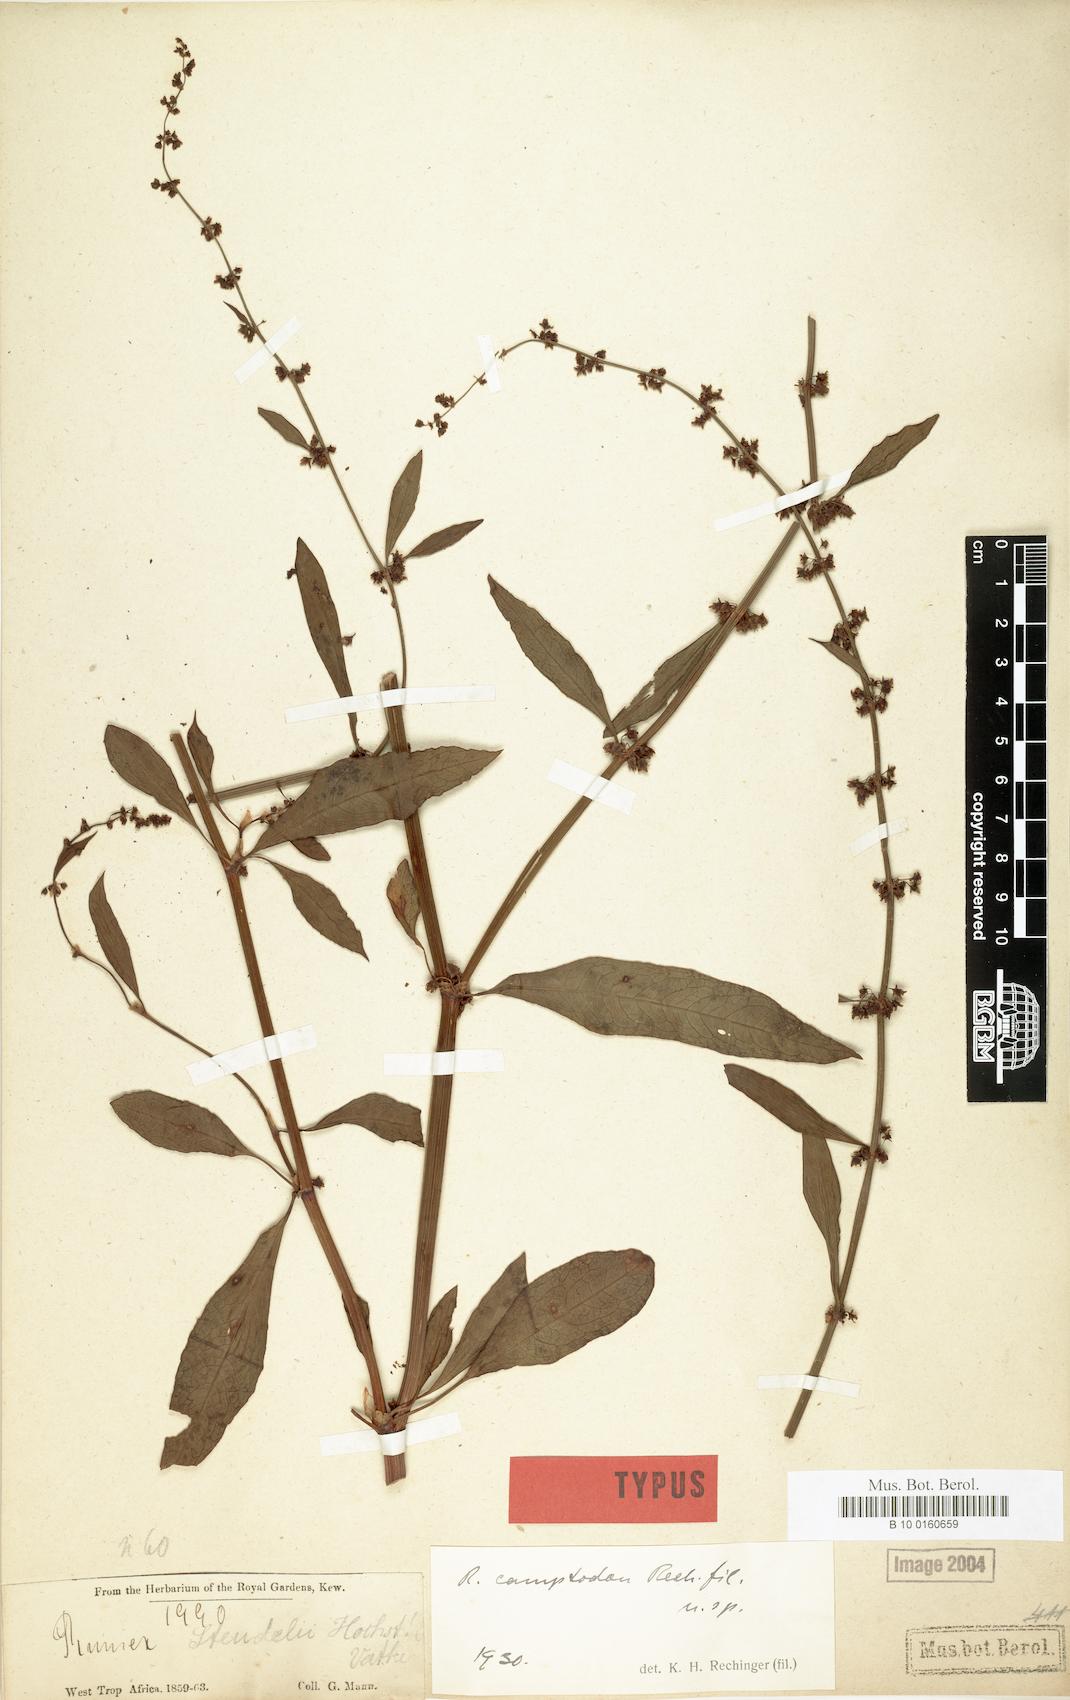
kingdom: Plantae
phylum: Tracheophyta
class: Magnoliopsida
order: Caryophyllales
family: Polygonaceae
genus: Rumex
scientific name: Rumex bequaertii
